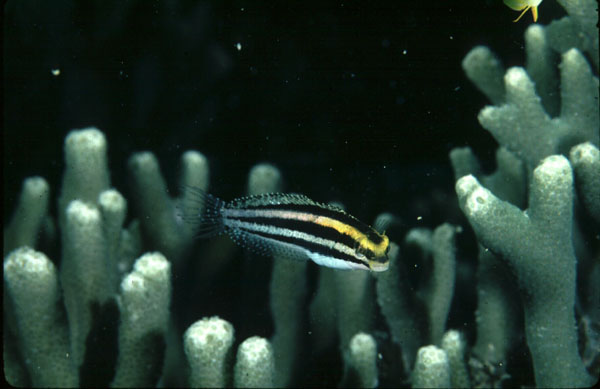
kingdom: Animalia
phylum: Chordata
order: Perciformes
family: Blenniidae
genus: Petroscirtes
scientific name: Petroscirtes breviceps
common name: Short-head sabretooth blenny
